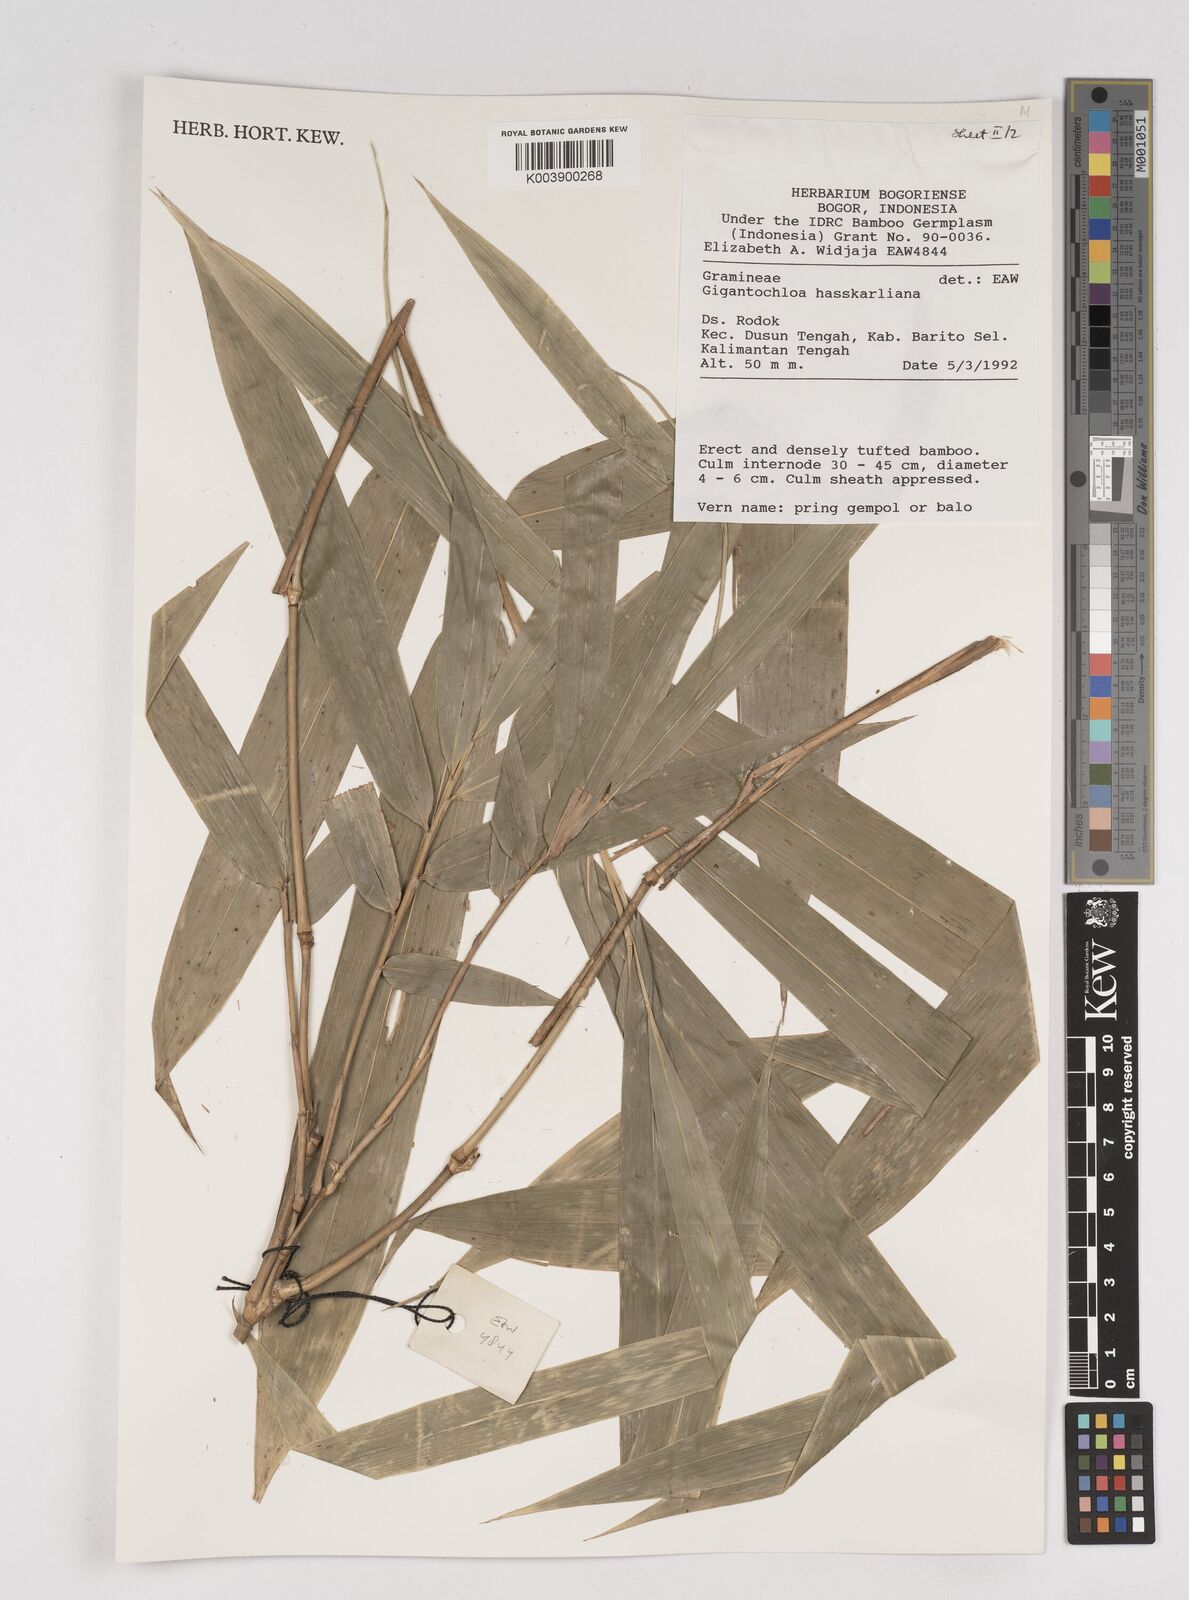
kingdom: Plantae
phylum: Tracheophyta
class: Liliopsida
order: Poales
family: Poaceae
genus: Gigantochloa
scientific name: Gigantochloa hasskarliana
